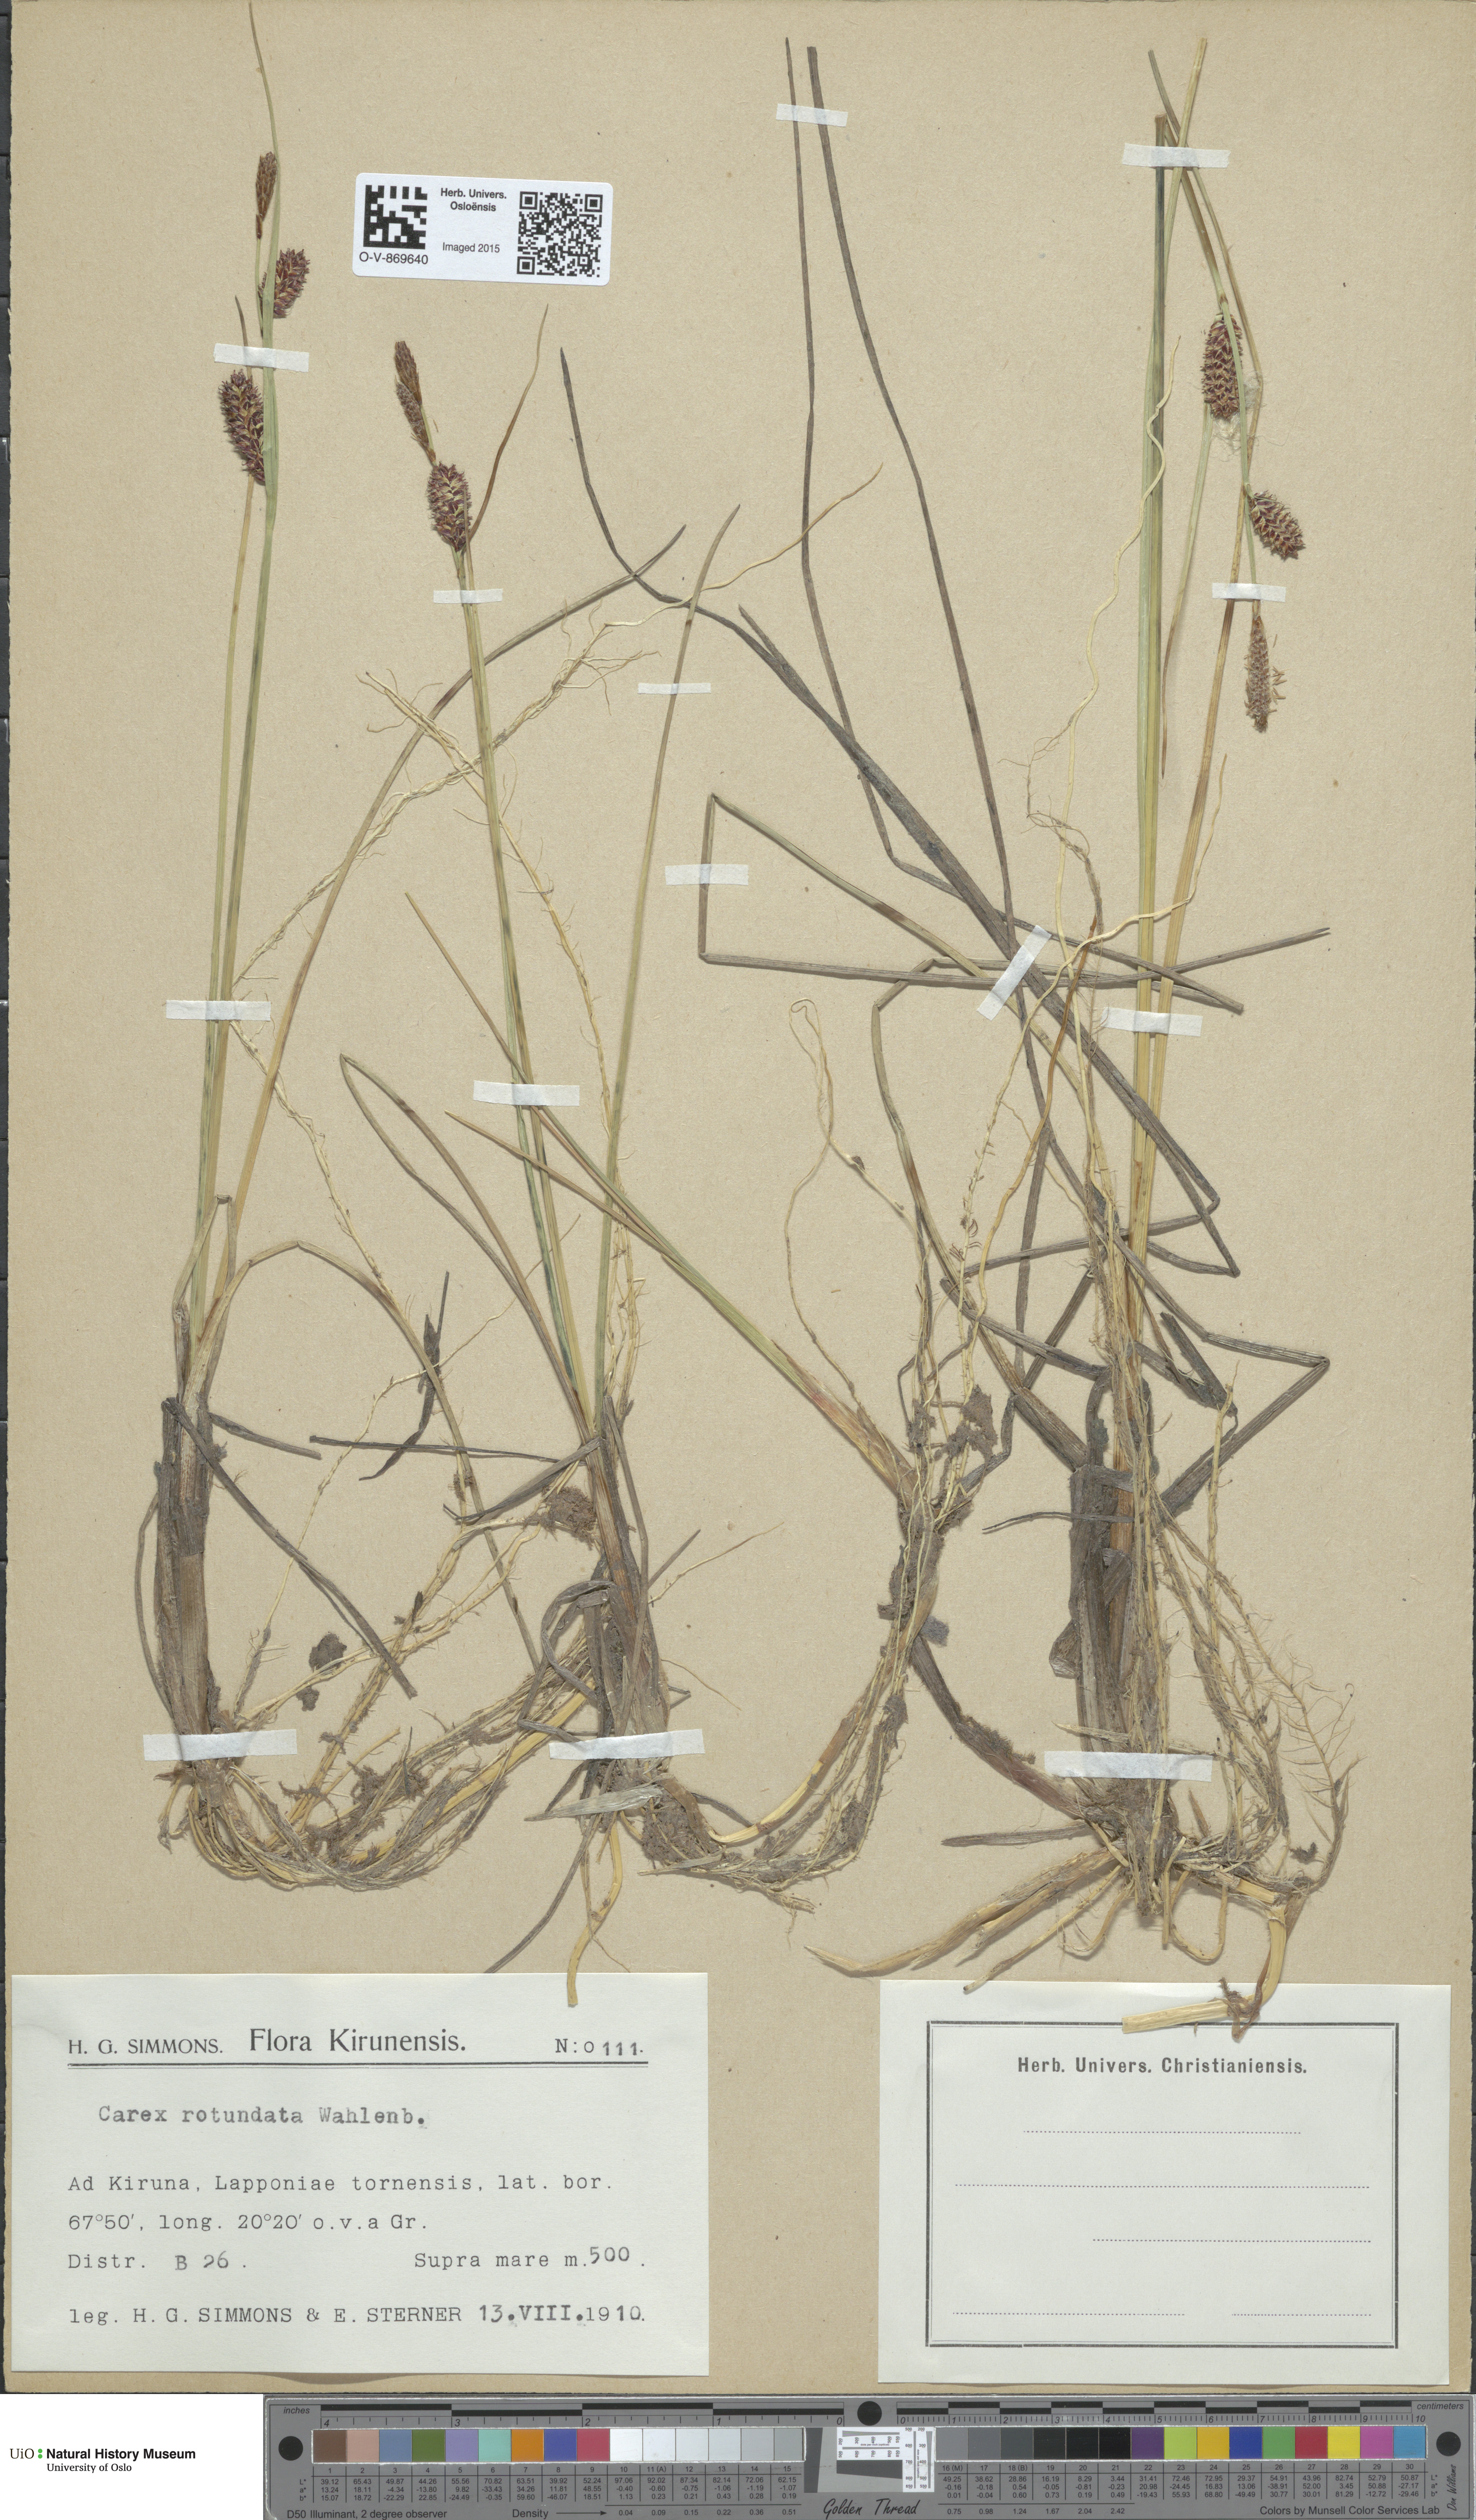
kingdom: Plantae
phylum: Tracheophyta
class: Liliopsida
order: Poales
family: Cyperaceae
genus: Carex
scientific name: Carex rotundata
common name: Round-fruited sedge
